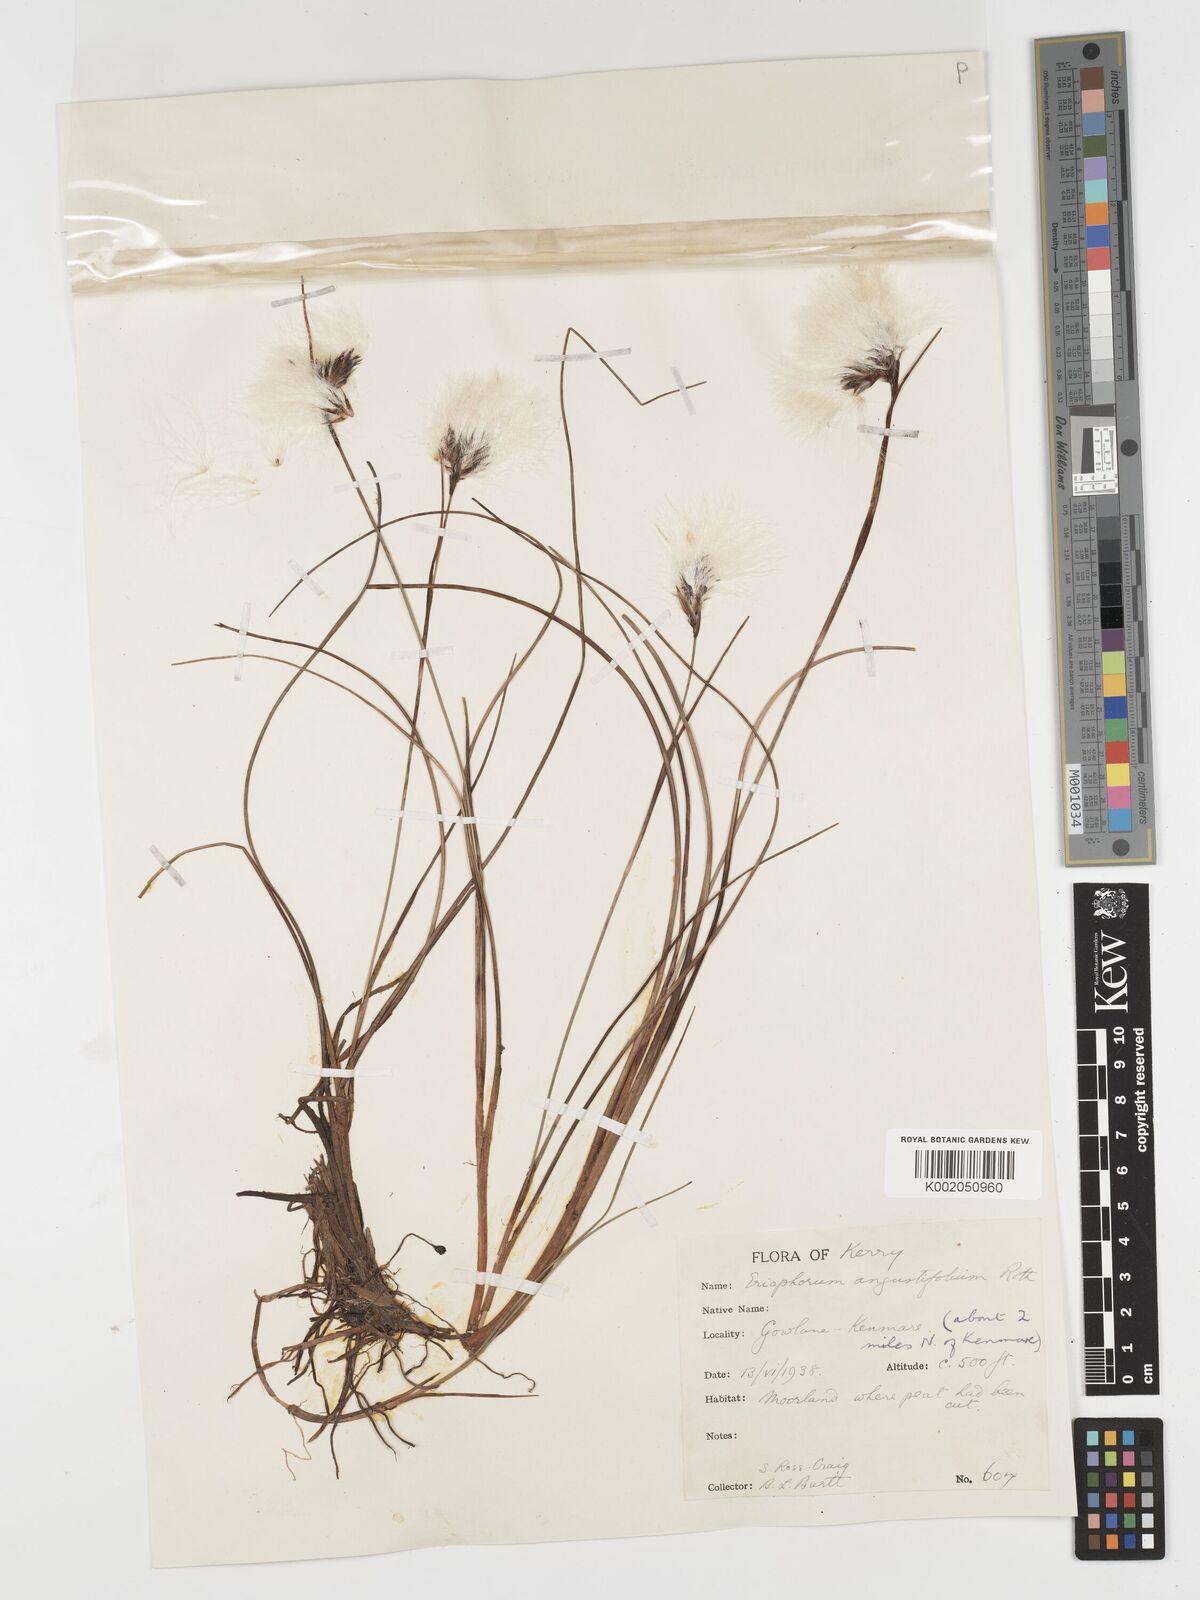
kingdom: Plantae
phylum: Tracheophyta
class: Liliopsida
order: Poales
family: Cyperaceae
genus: Eriophorum
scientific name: Eriophorum angustifolium
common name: Common cottongrass
